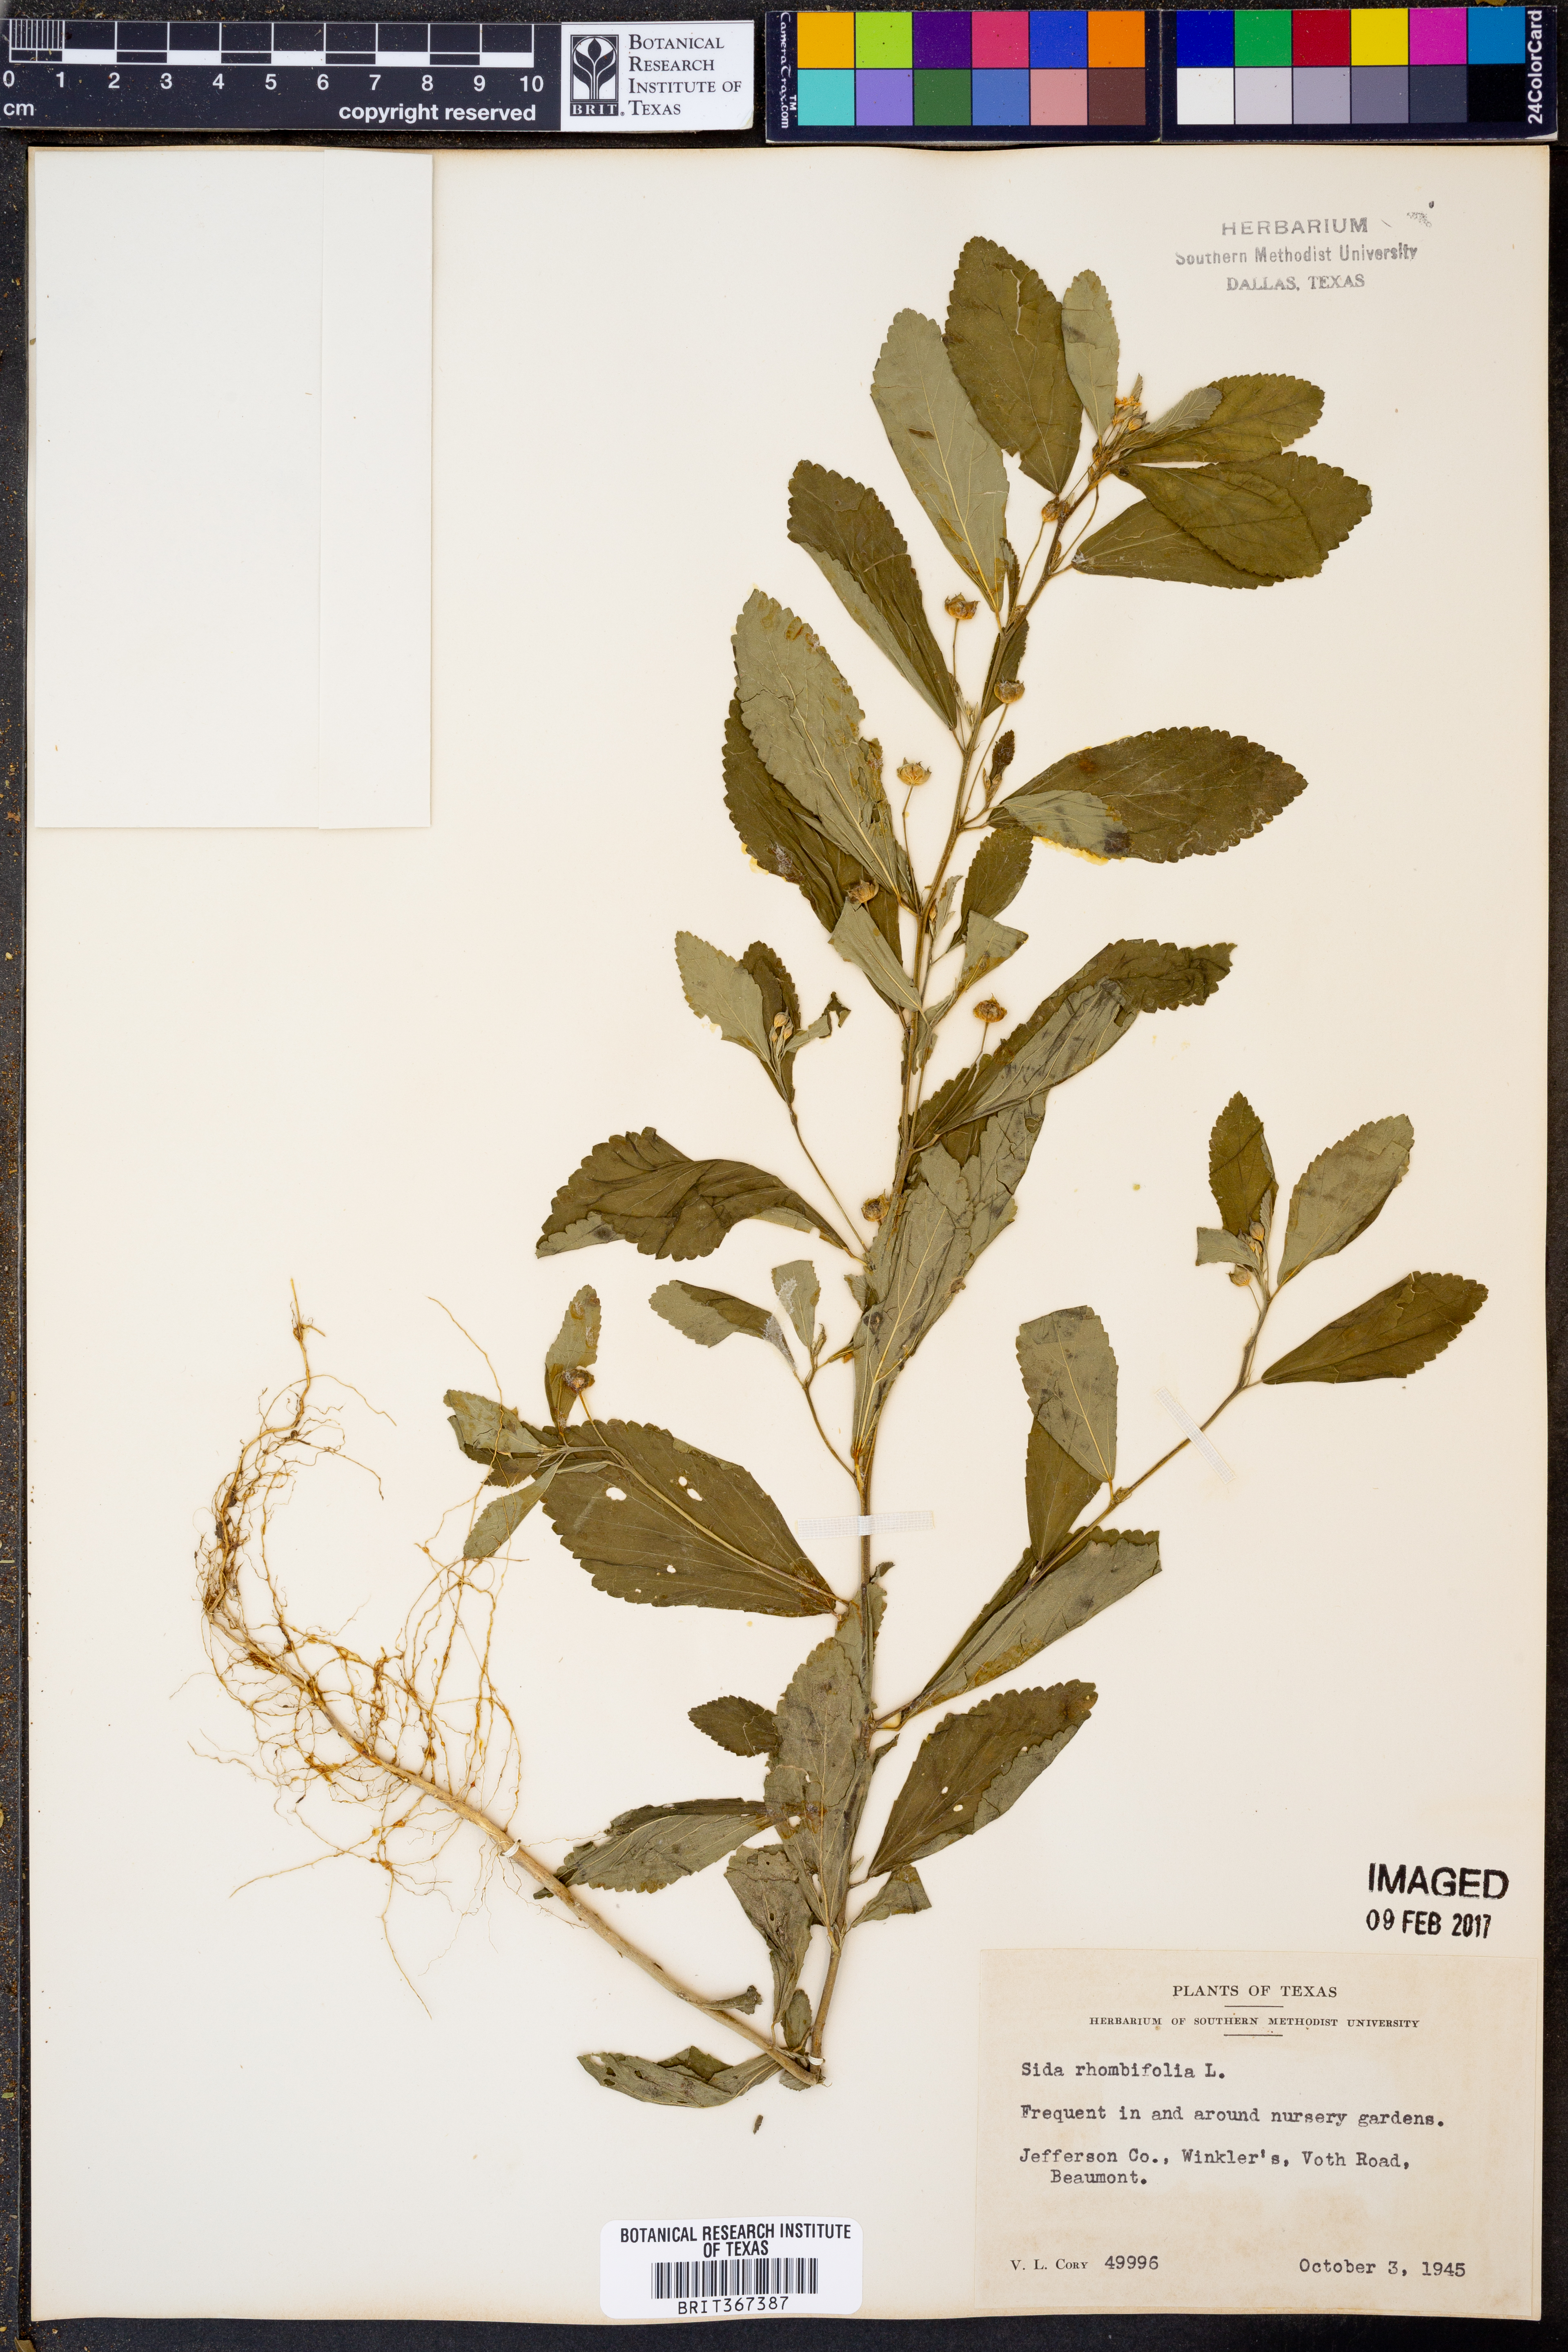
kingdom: Plantae
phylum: Tracheophyta
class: Magnoliopsida
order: Malvales
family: Malvaceae
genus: Sida
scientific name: Sida rhombifolia
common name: Queensland-hemp
